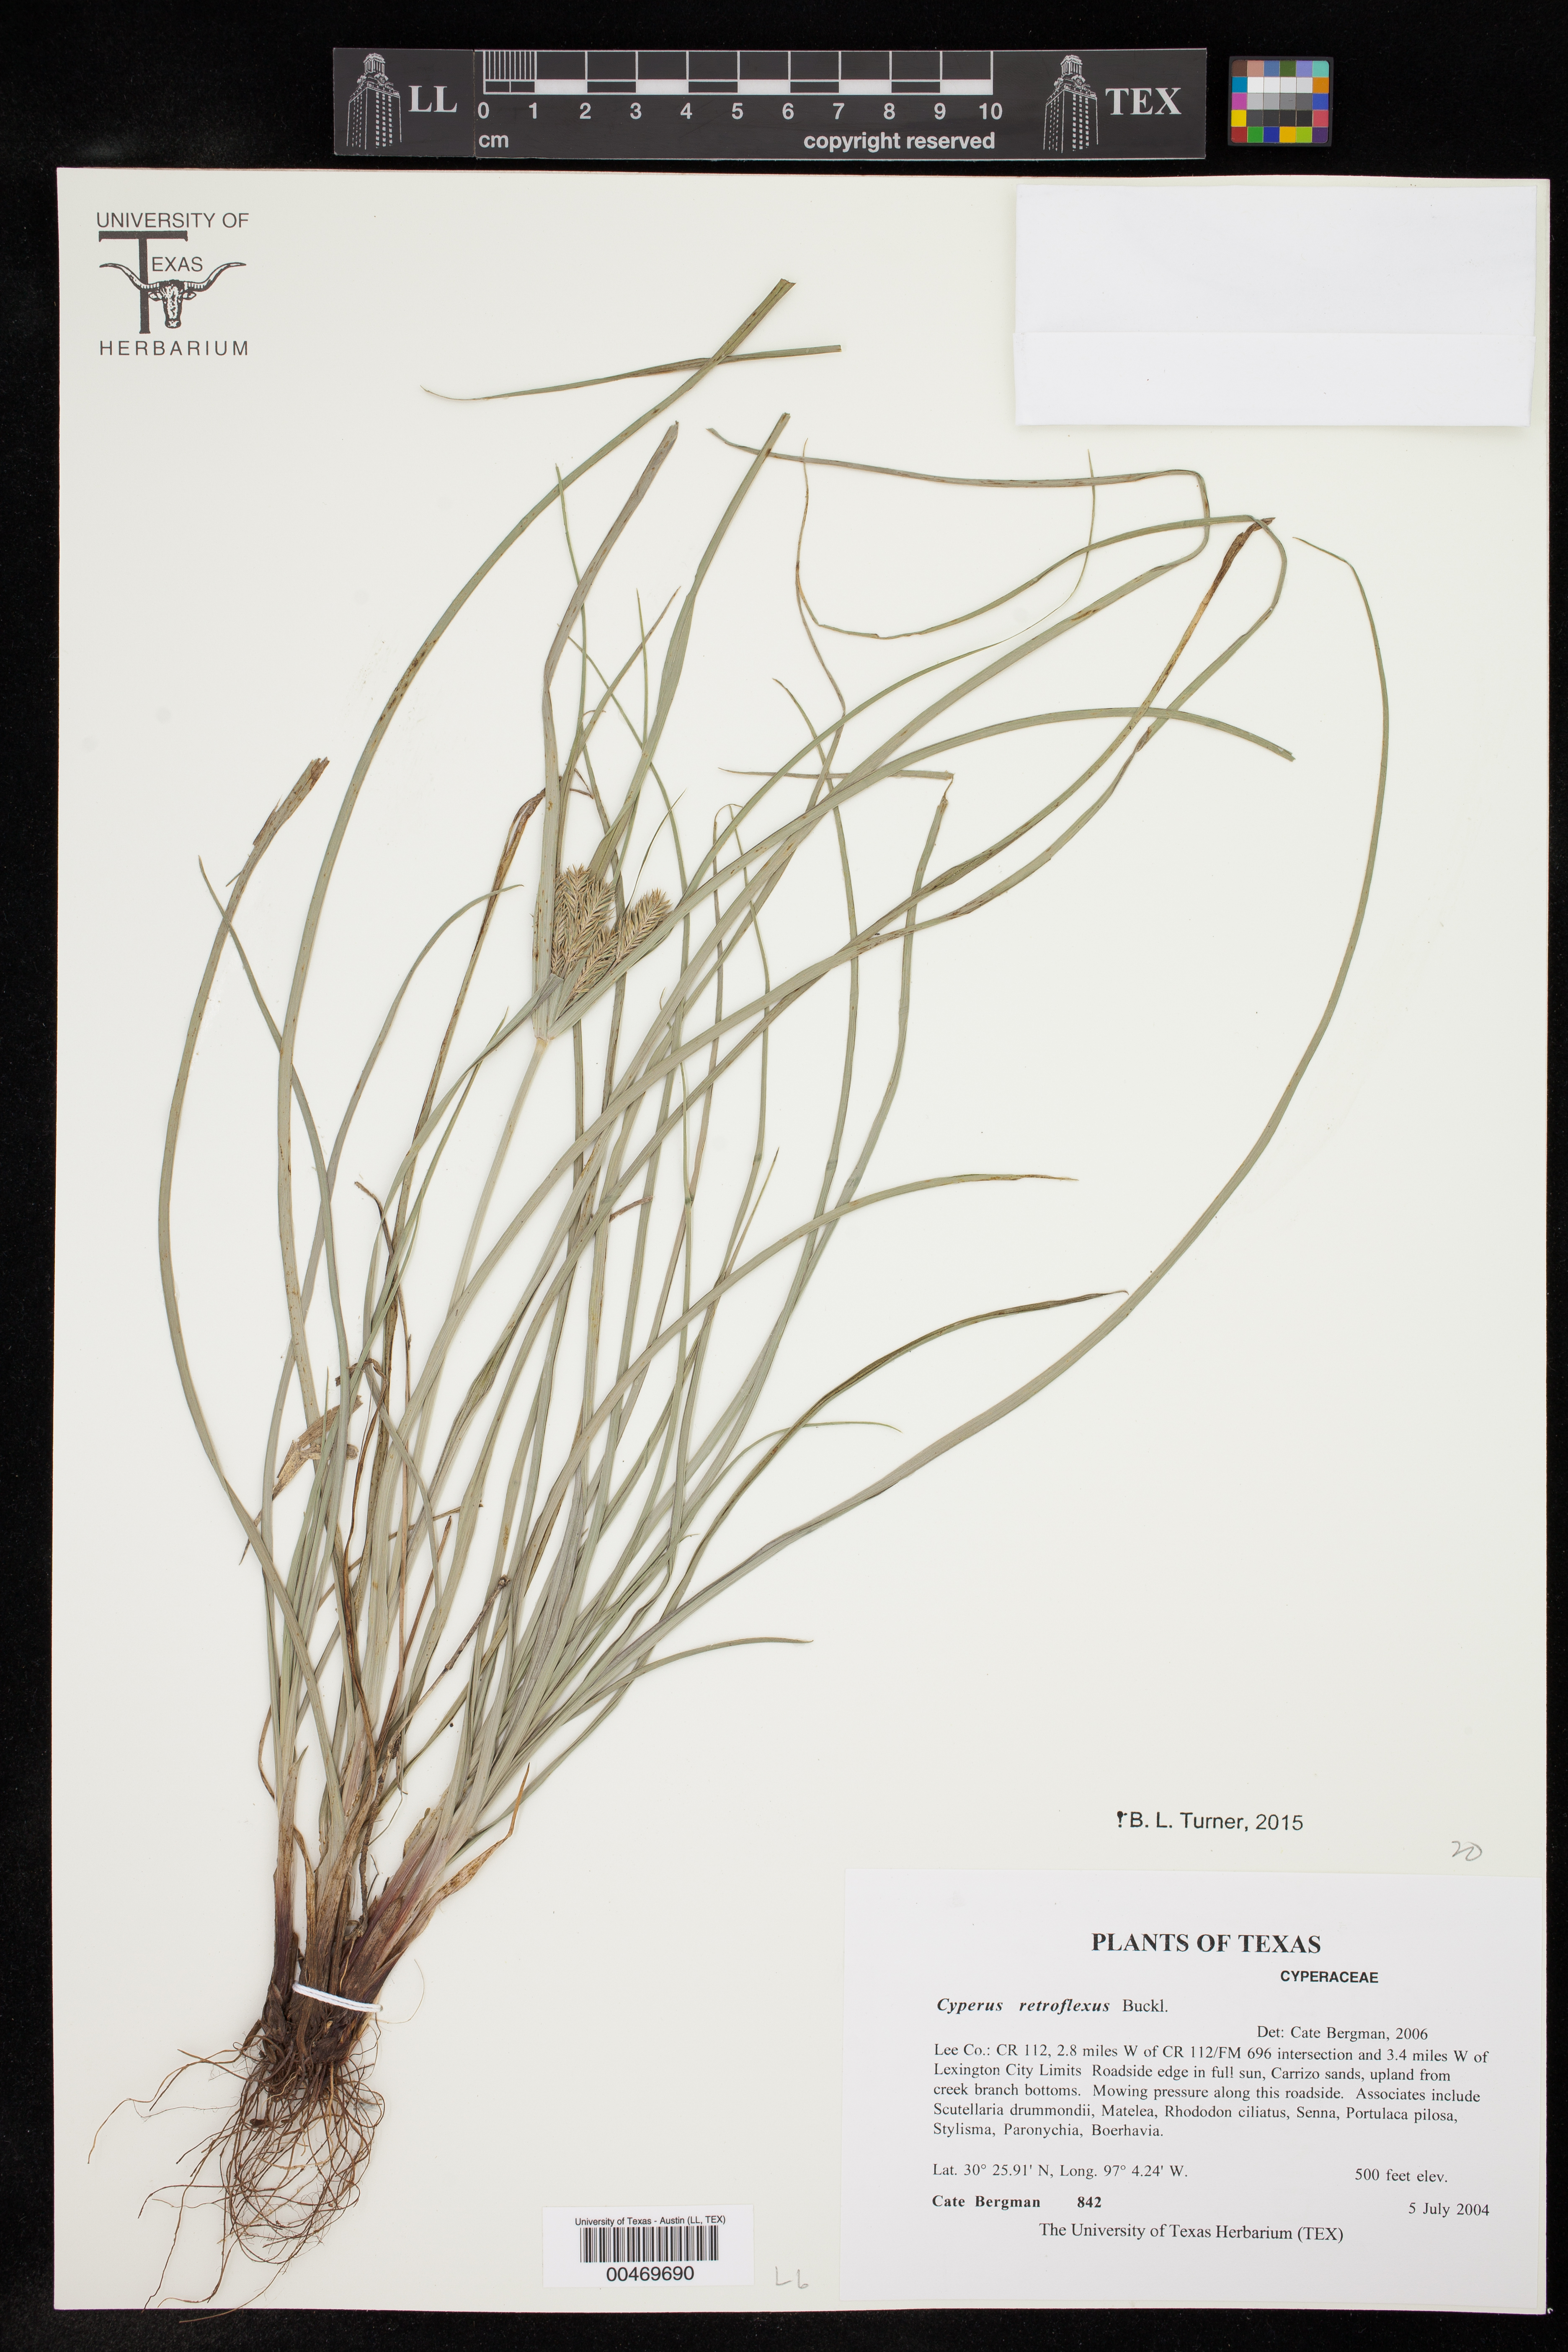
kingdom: Plantae
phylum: Tracheophyta
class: Liliopsida
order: Poales
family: Cyperaceae
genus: Cyperus
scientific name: Cyperus retroflexus
